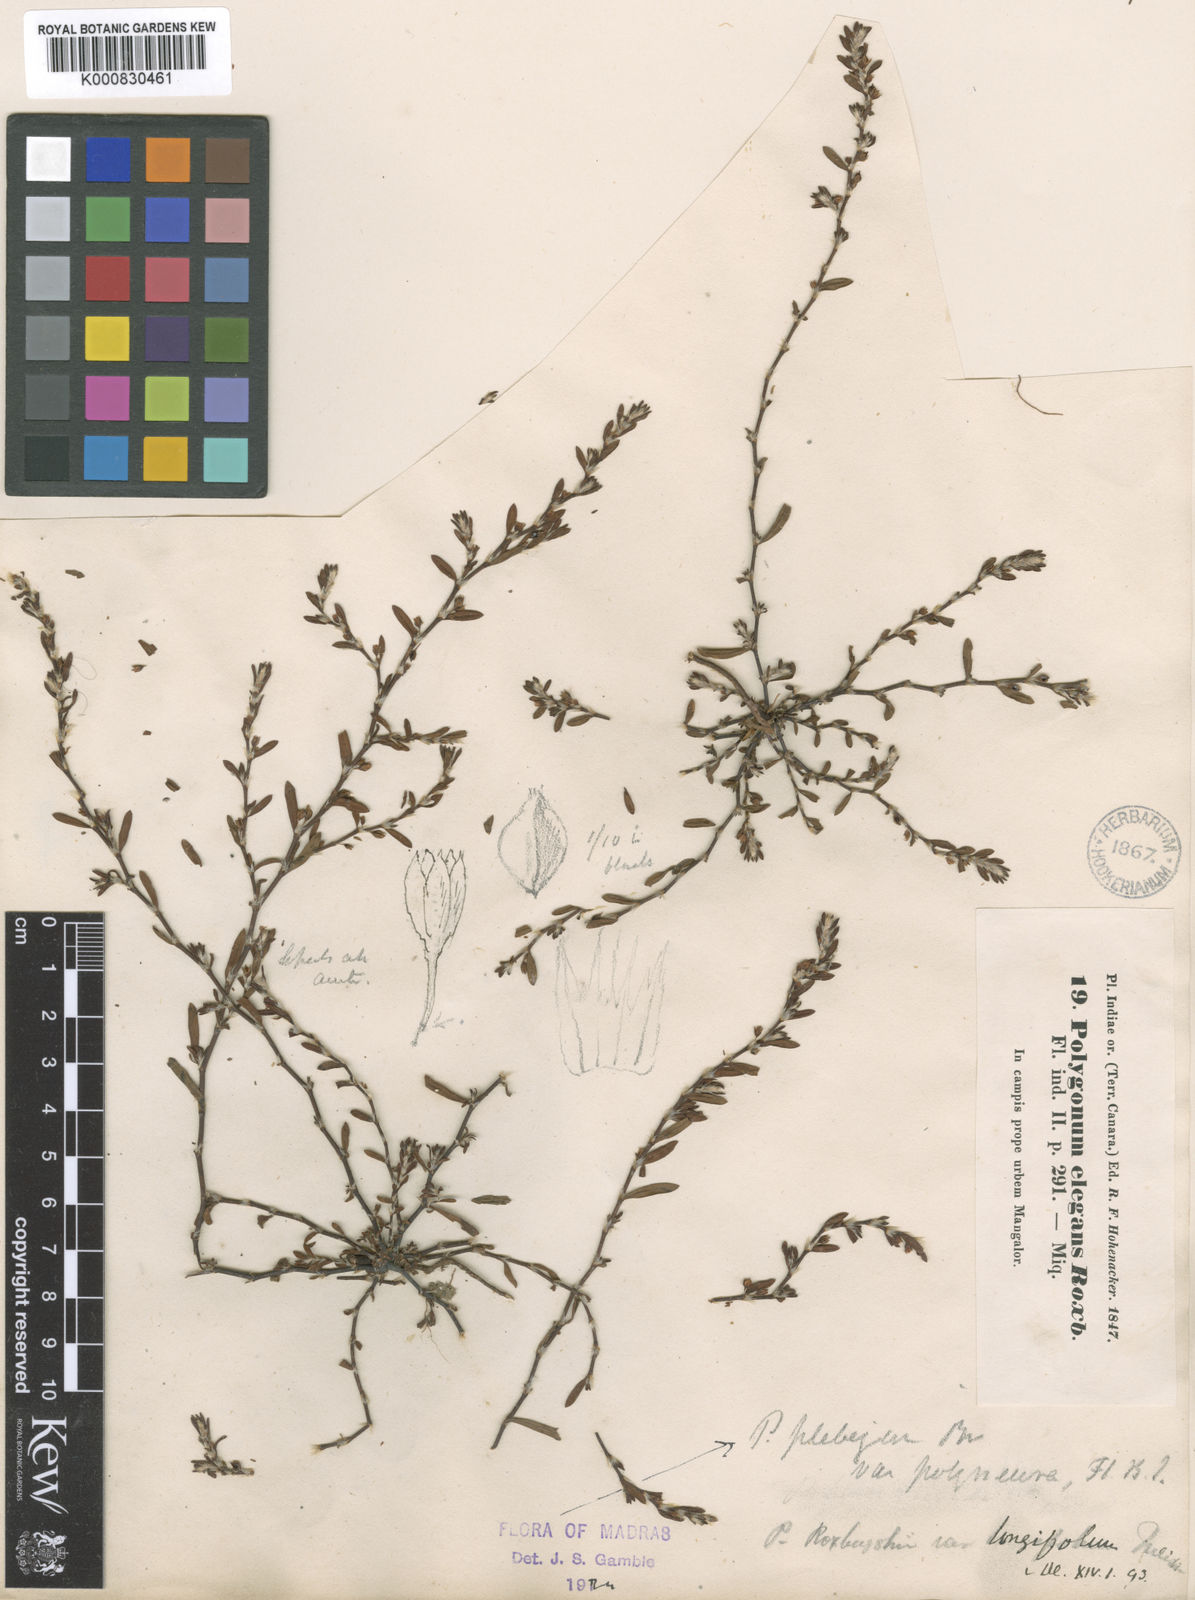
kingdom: Plantae
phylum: Tracheophyta
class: Magnoliopsida
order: Caryophyllales
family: Polygonaceae
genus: Polygonum
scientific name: Polygonum plebeium
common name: Common knotweed
